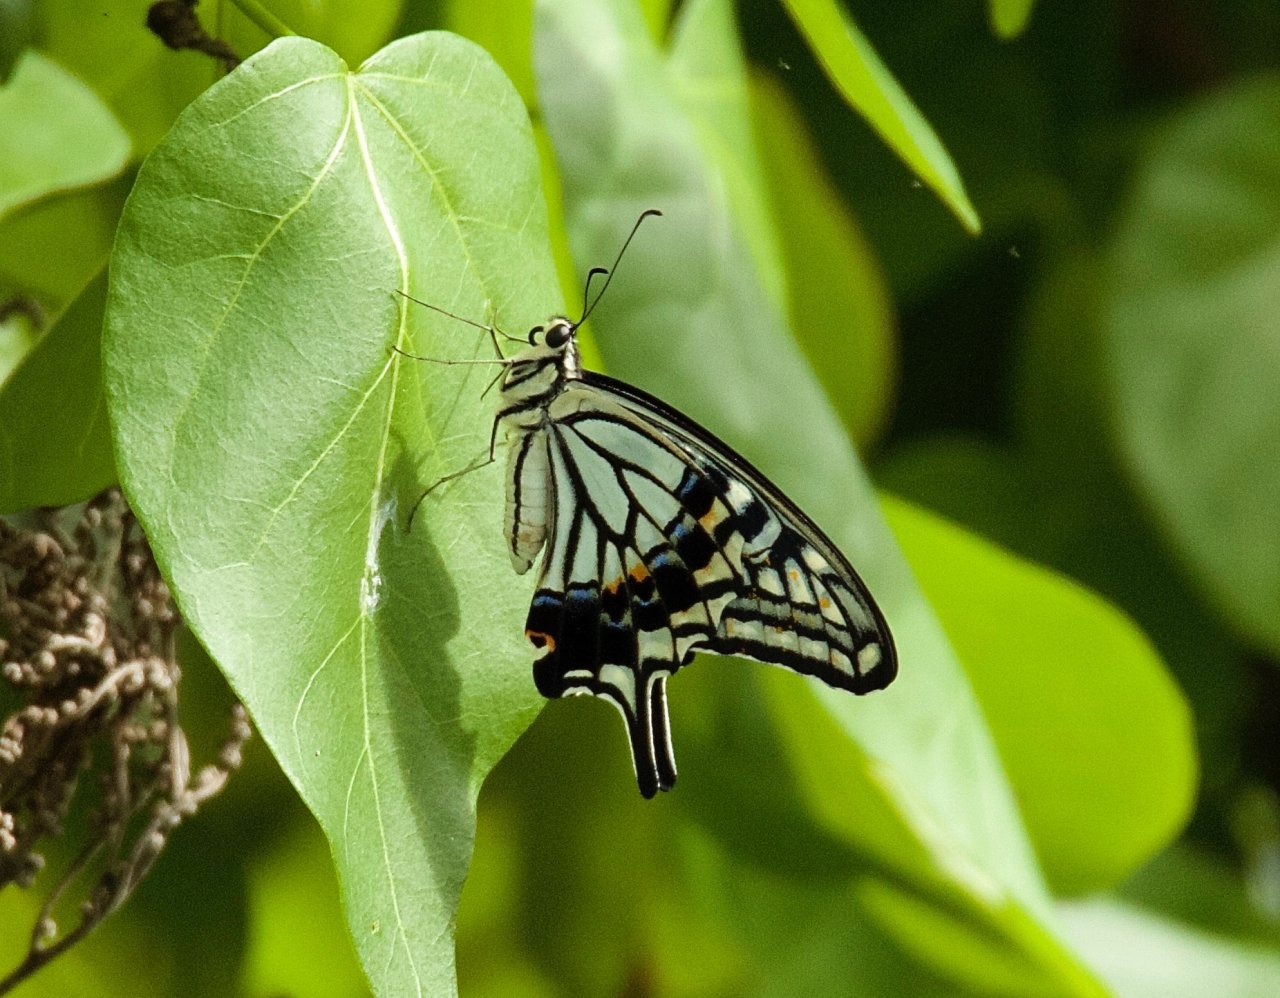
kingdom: Animalia
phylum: Arthropoda
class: Insecta
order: Lepidoptera
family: Papilionidae
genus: Papilio
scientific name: Papilio xuthus
